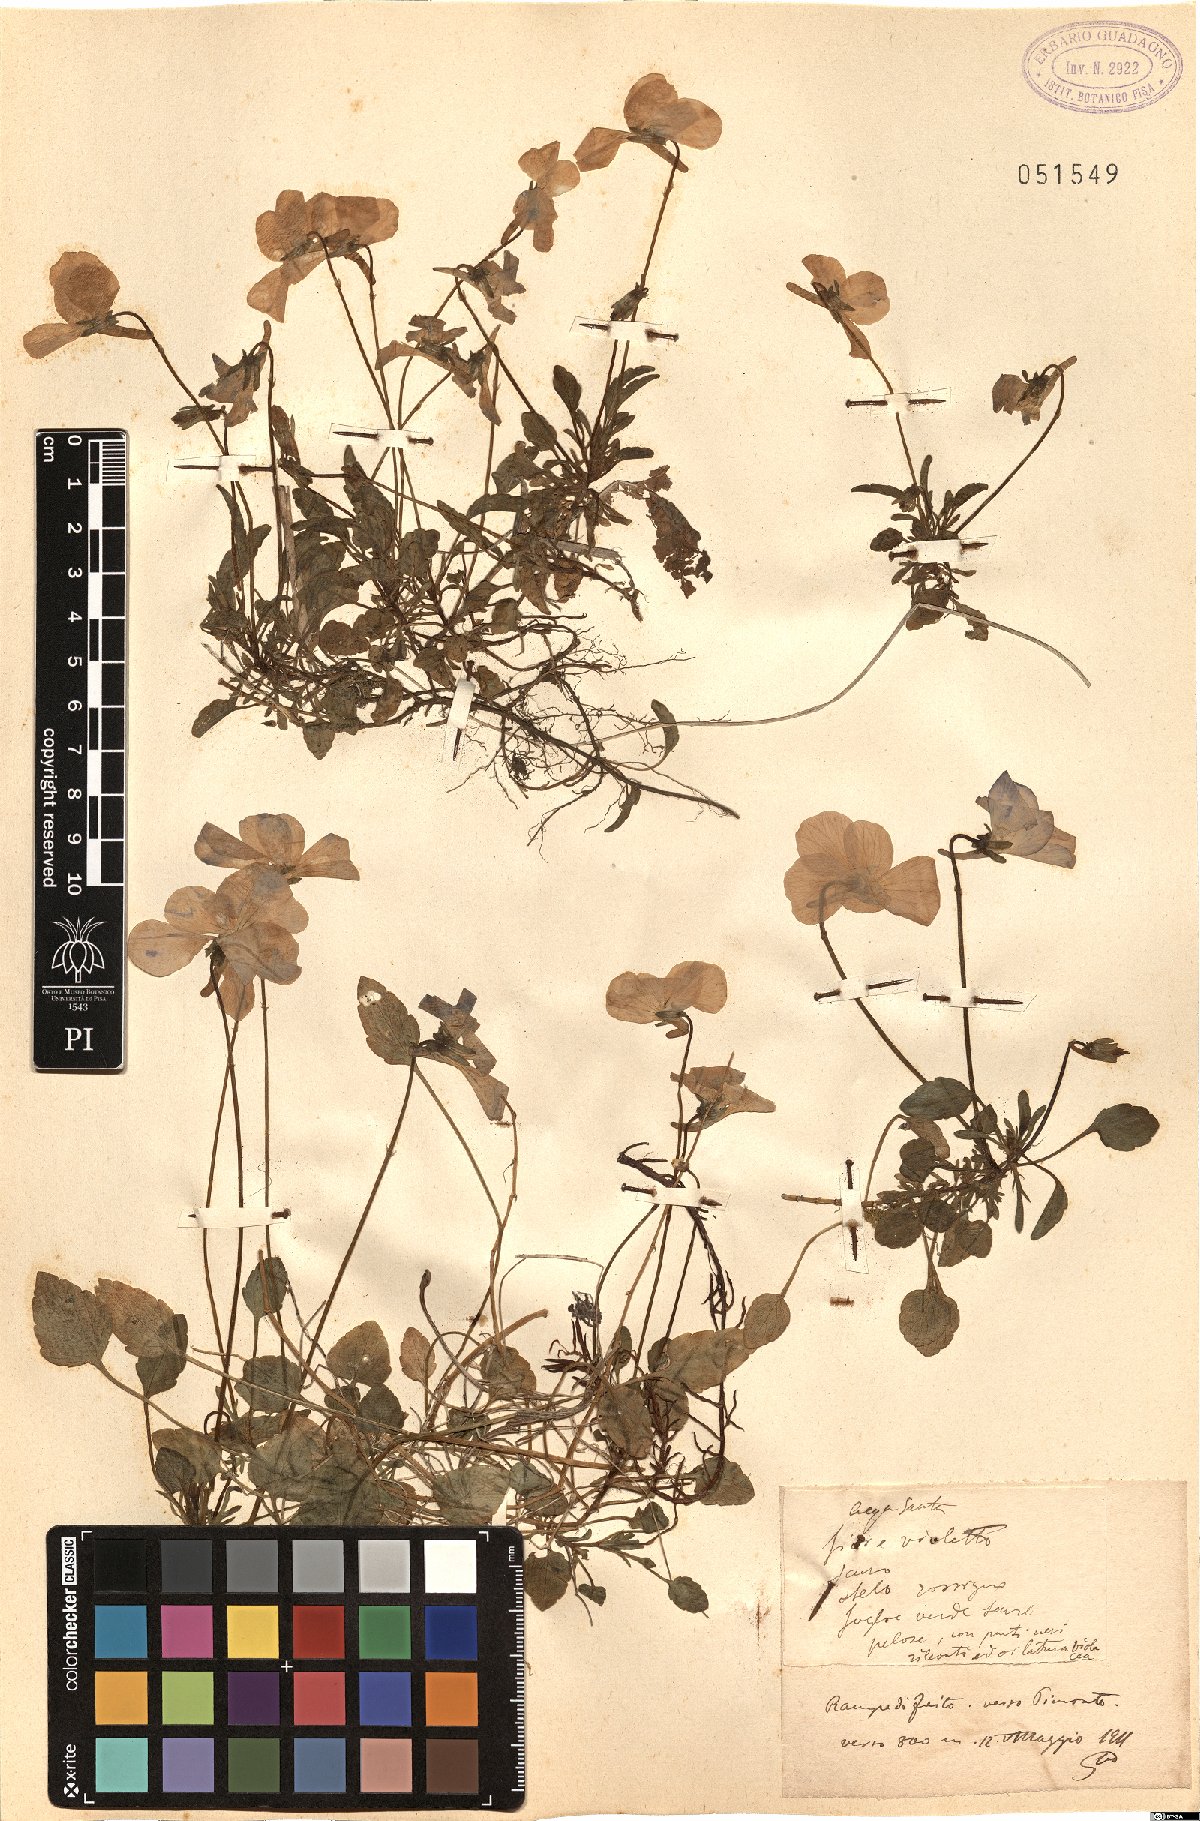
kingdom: Plantae
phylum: Tracheophyta
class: Magnoliopsida
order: Malpighiales
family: Violaceae
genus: Viola
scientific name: Viola
